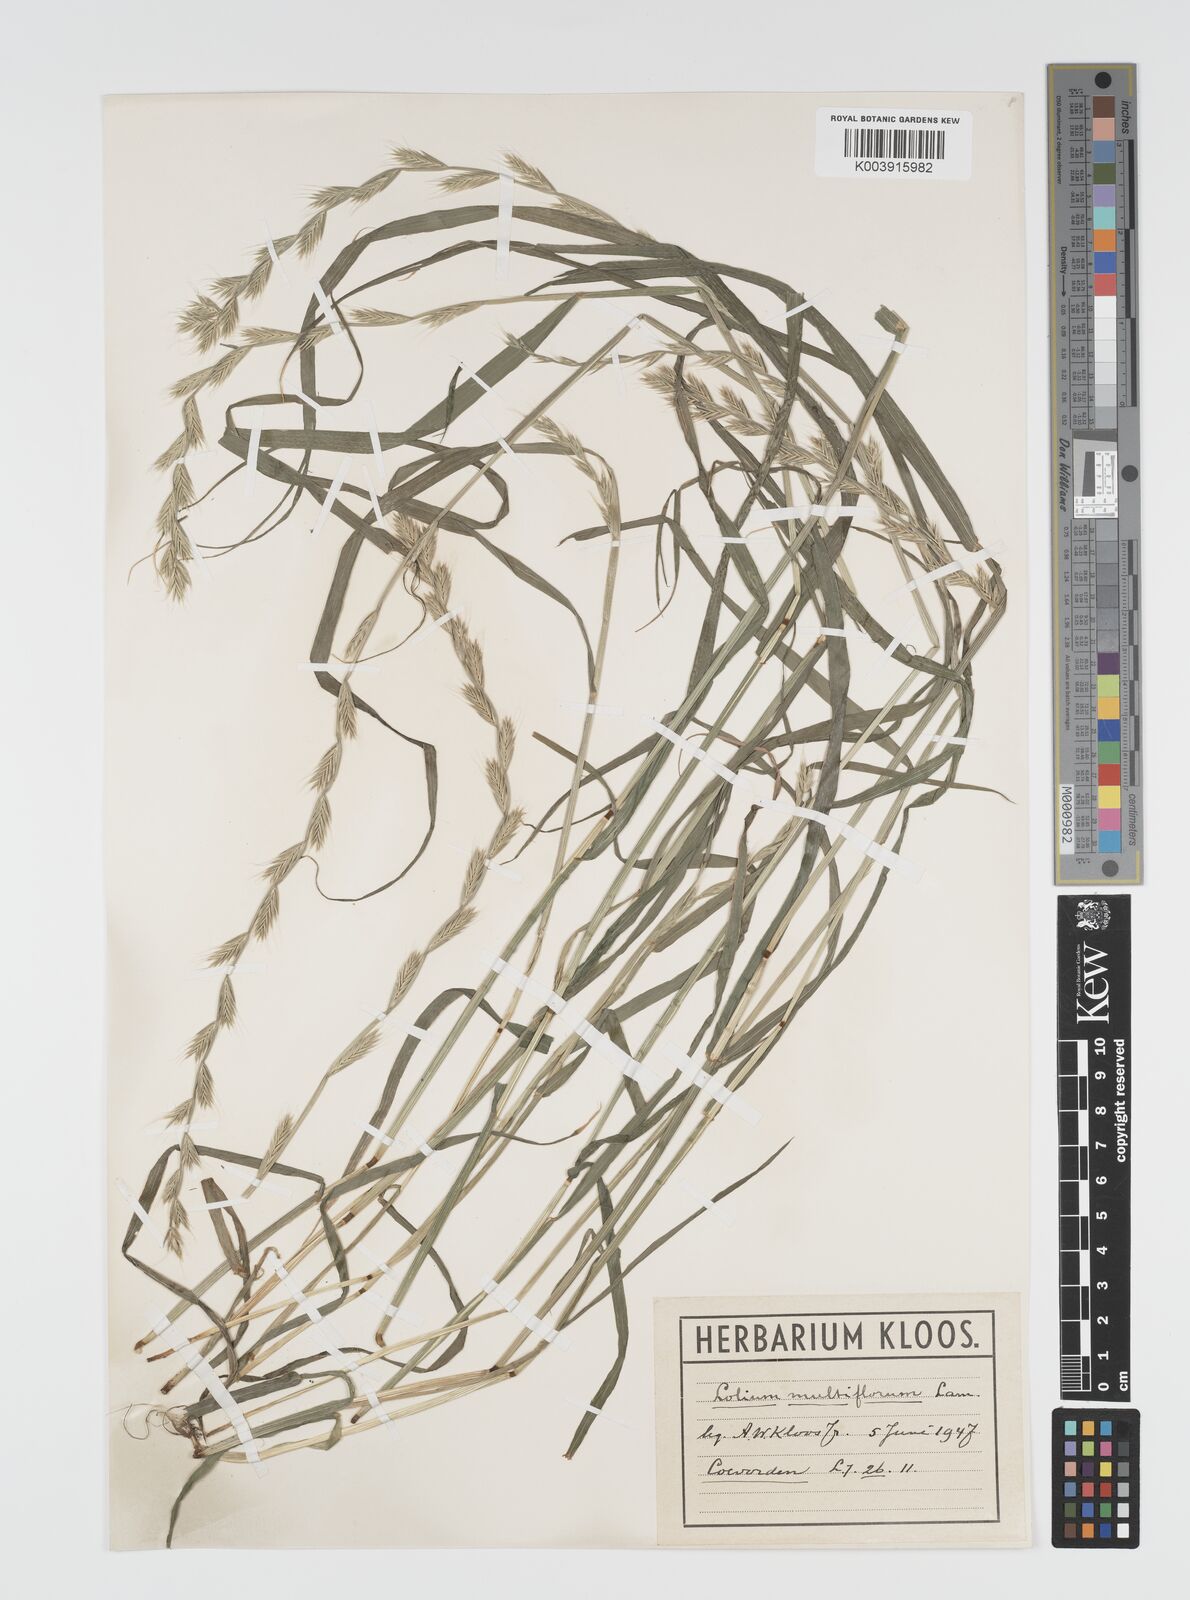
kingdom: Plantae
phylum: Tracheophyta
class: Liliopsida
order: Poales
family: Poaceae
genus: Lolium
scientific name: Lolium multiflorum
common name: Annual ryegrass
